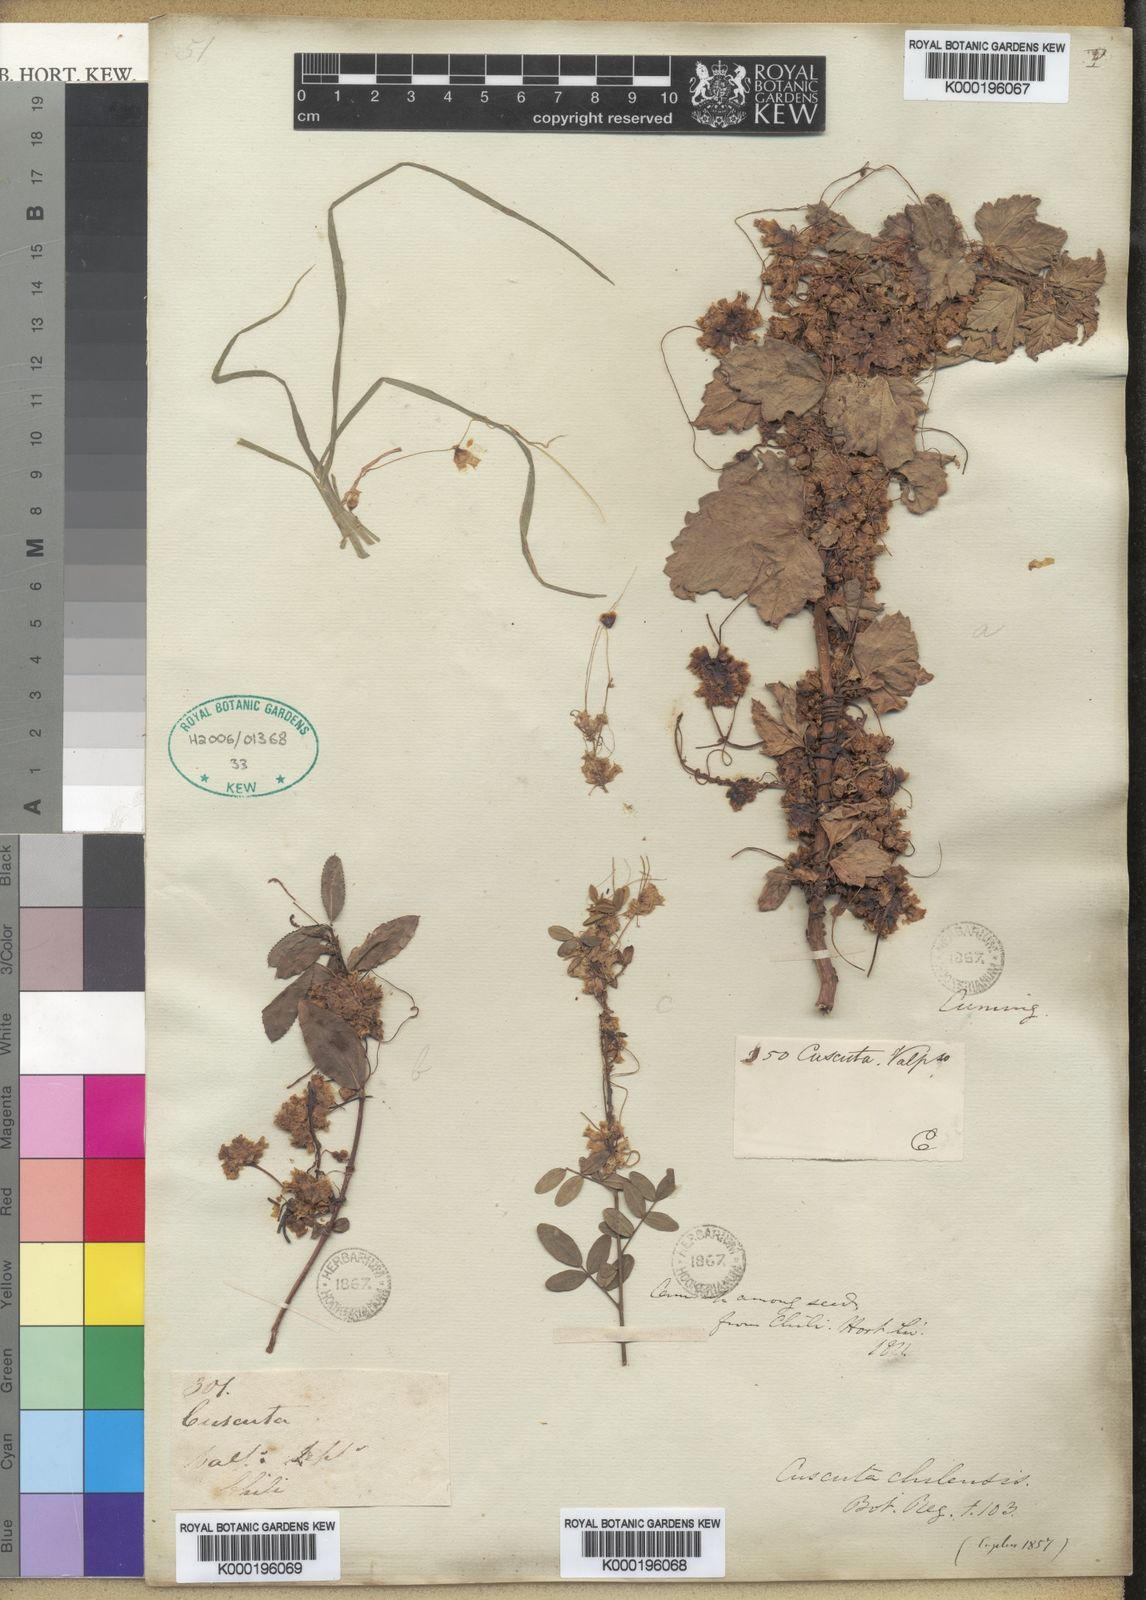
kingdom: Plantae
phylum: Tracheophyta
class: Magnoliopsida
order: Solanales
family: Convolvulaceae
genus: Cuscuta
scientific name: Cuscuta chilensis
